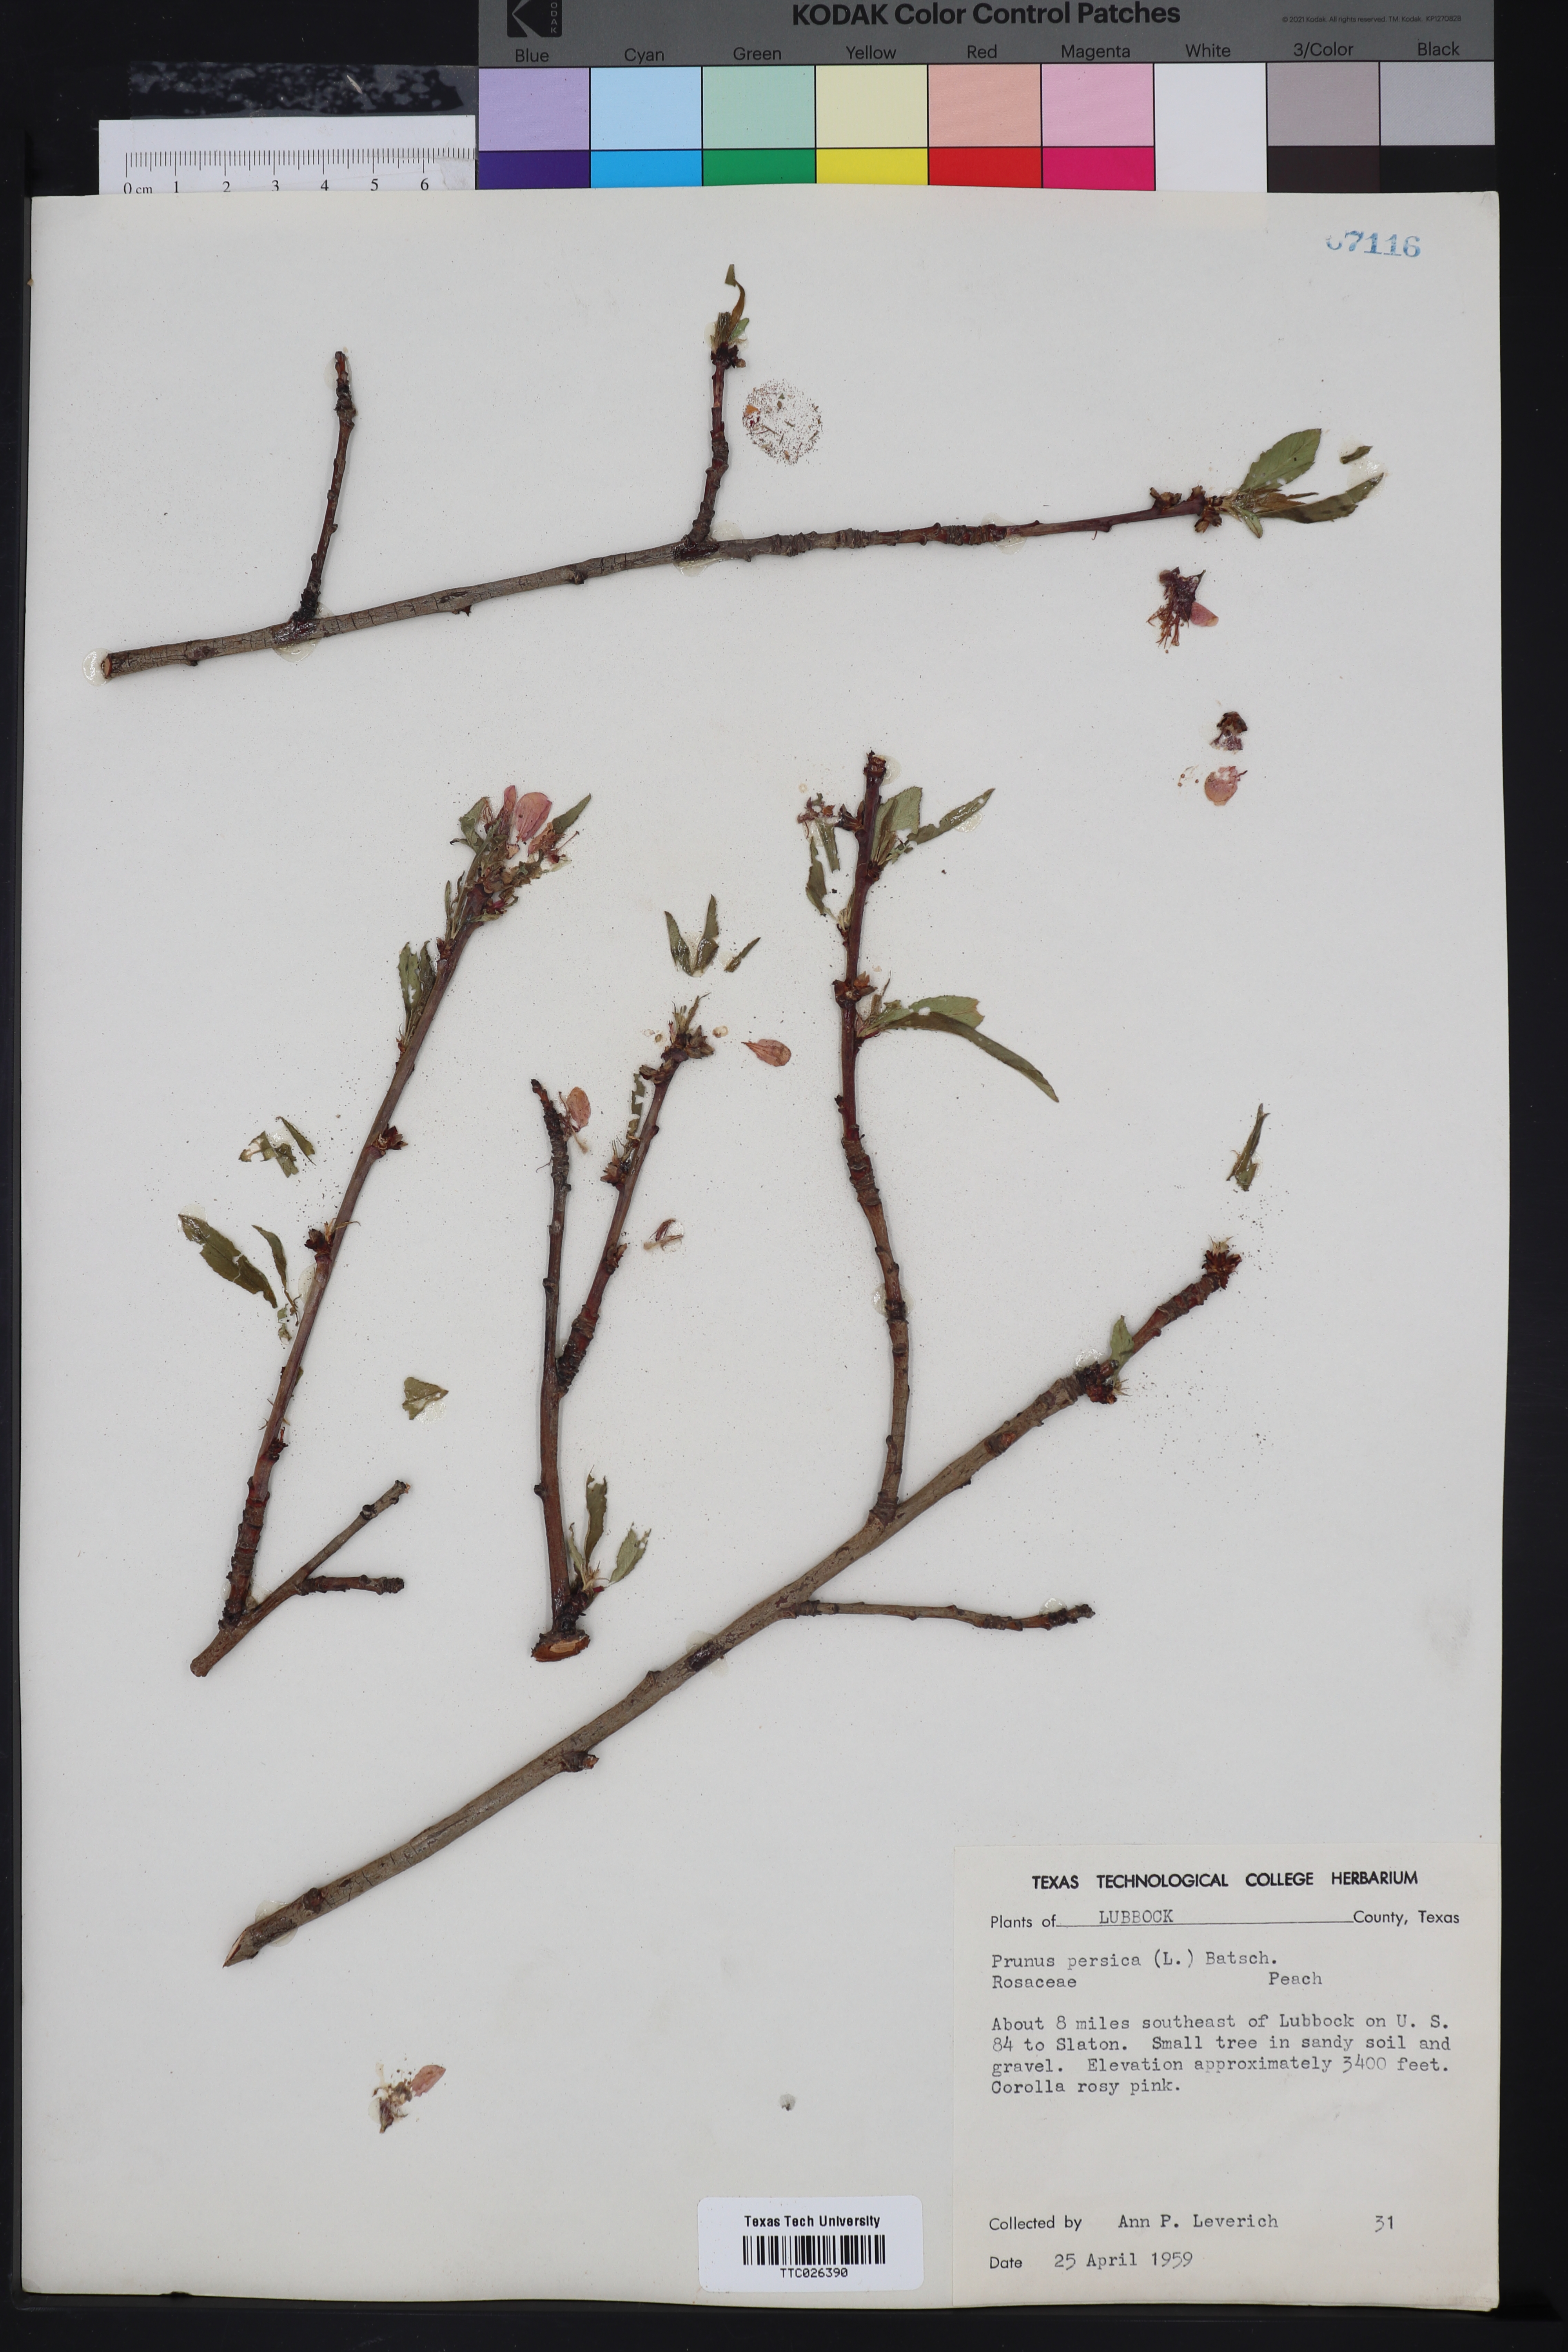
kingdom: Plantae
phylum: Tracheophyta
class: Magnoliopsida
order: Rosales
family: Rosaceae
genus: Prunus
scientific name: Prunus persica
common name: Peach
